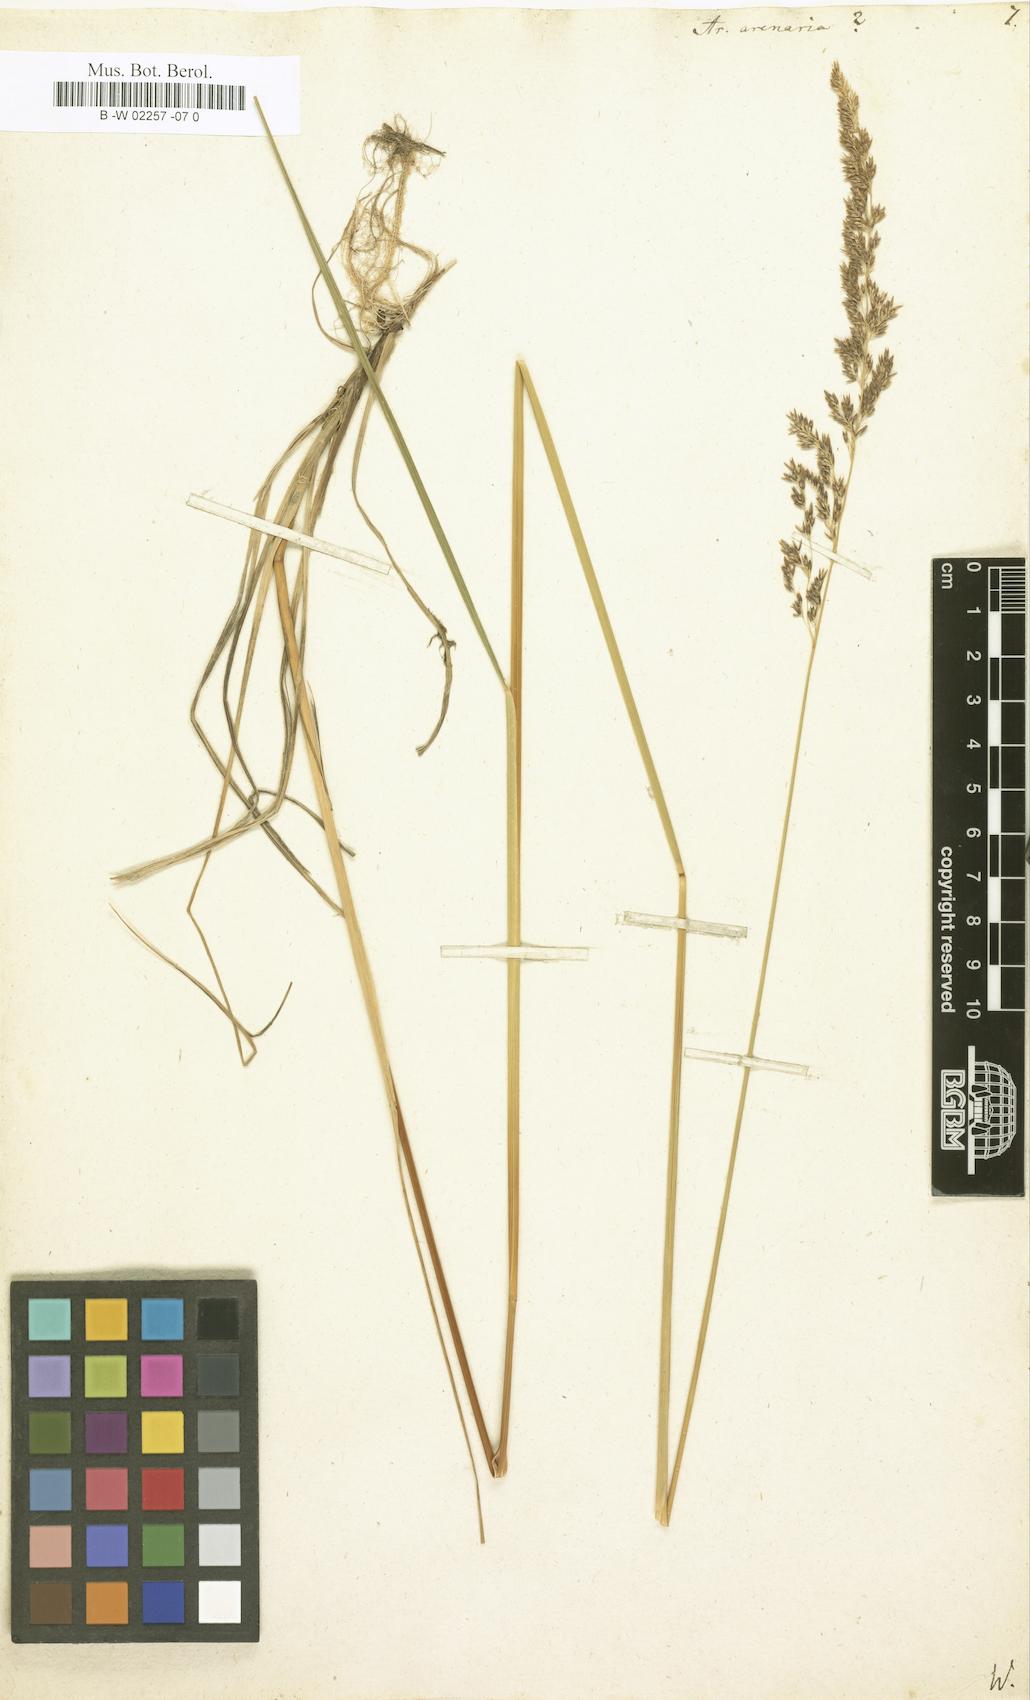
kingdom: Plantae
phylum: Tracheophyta
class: Liliopsida
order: Poales
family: Poaceae
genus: Arundo
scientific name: Arundo arenaria
